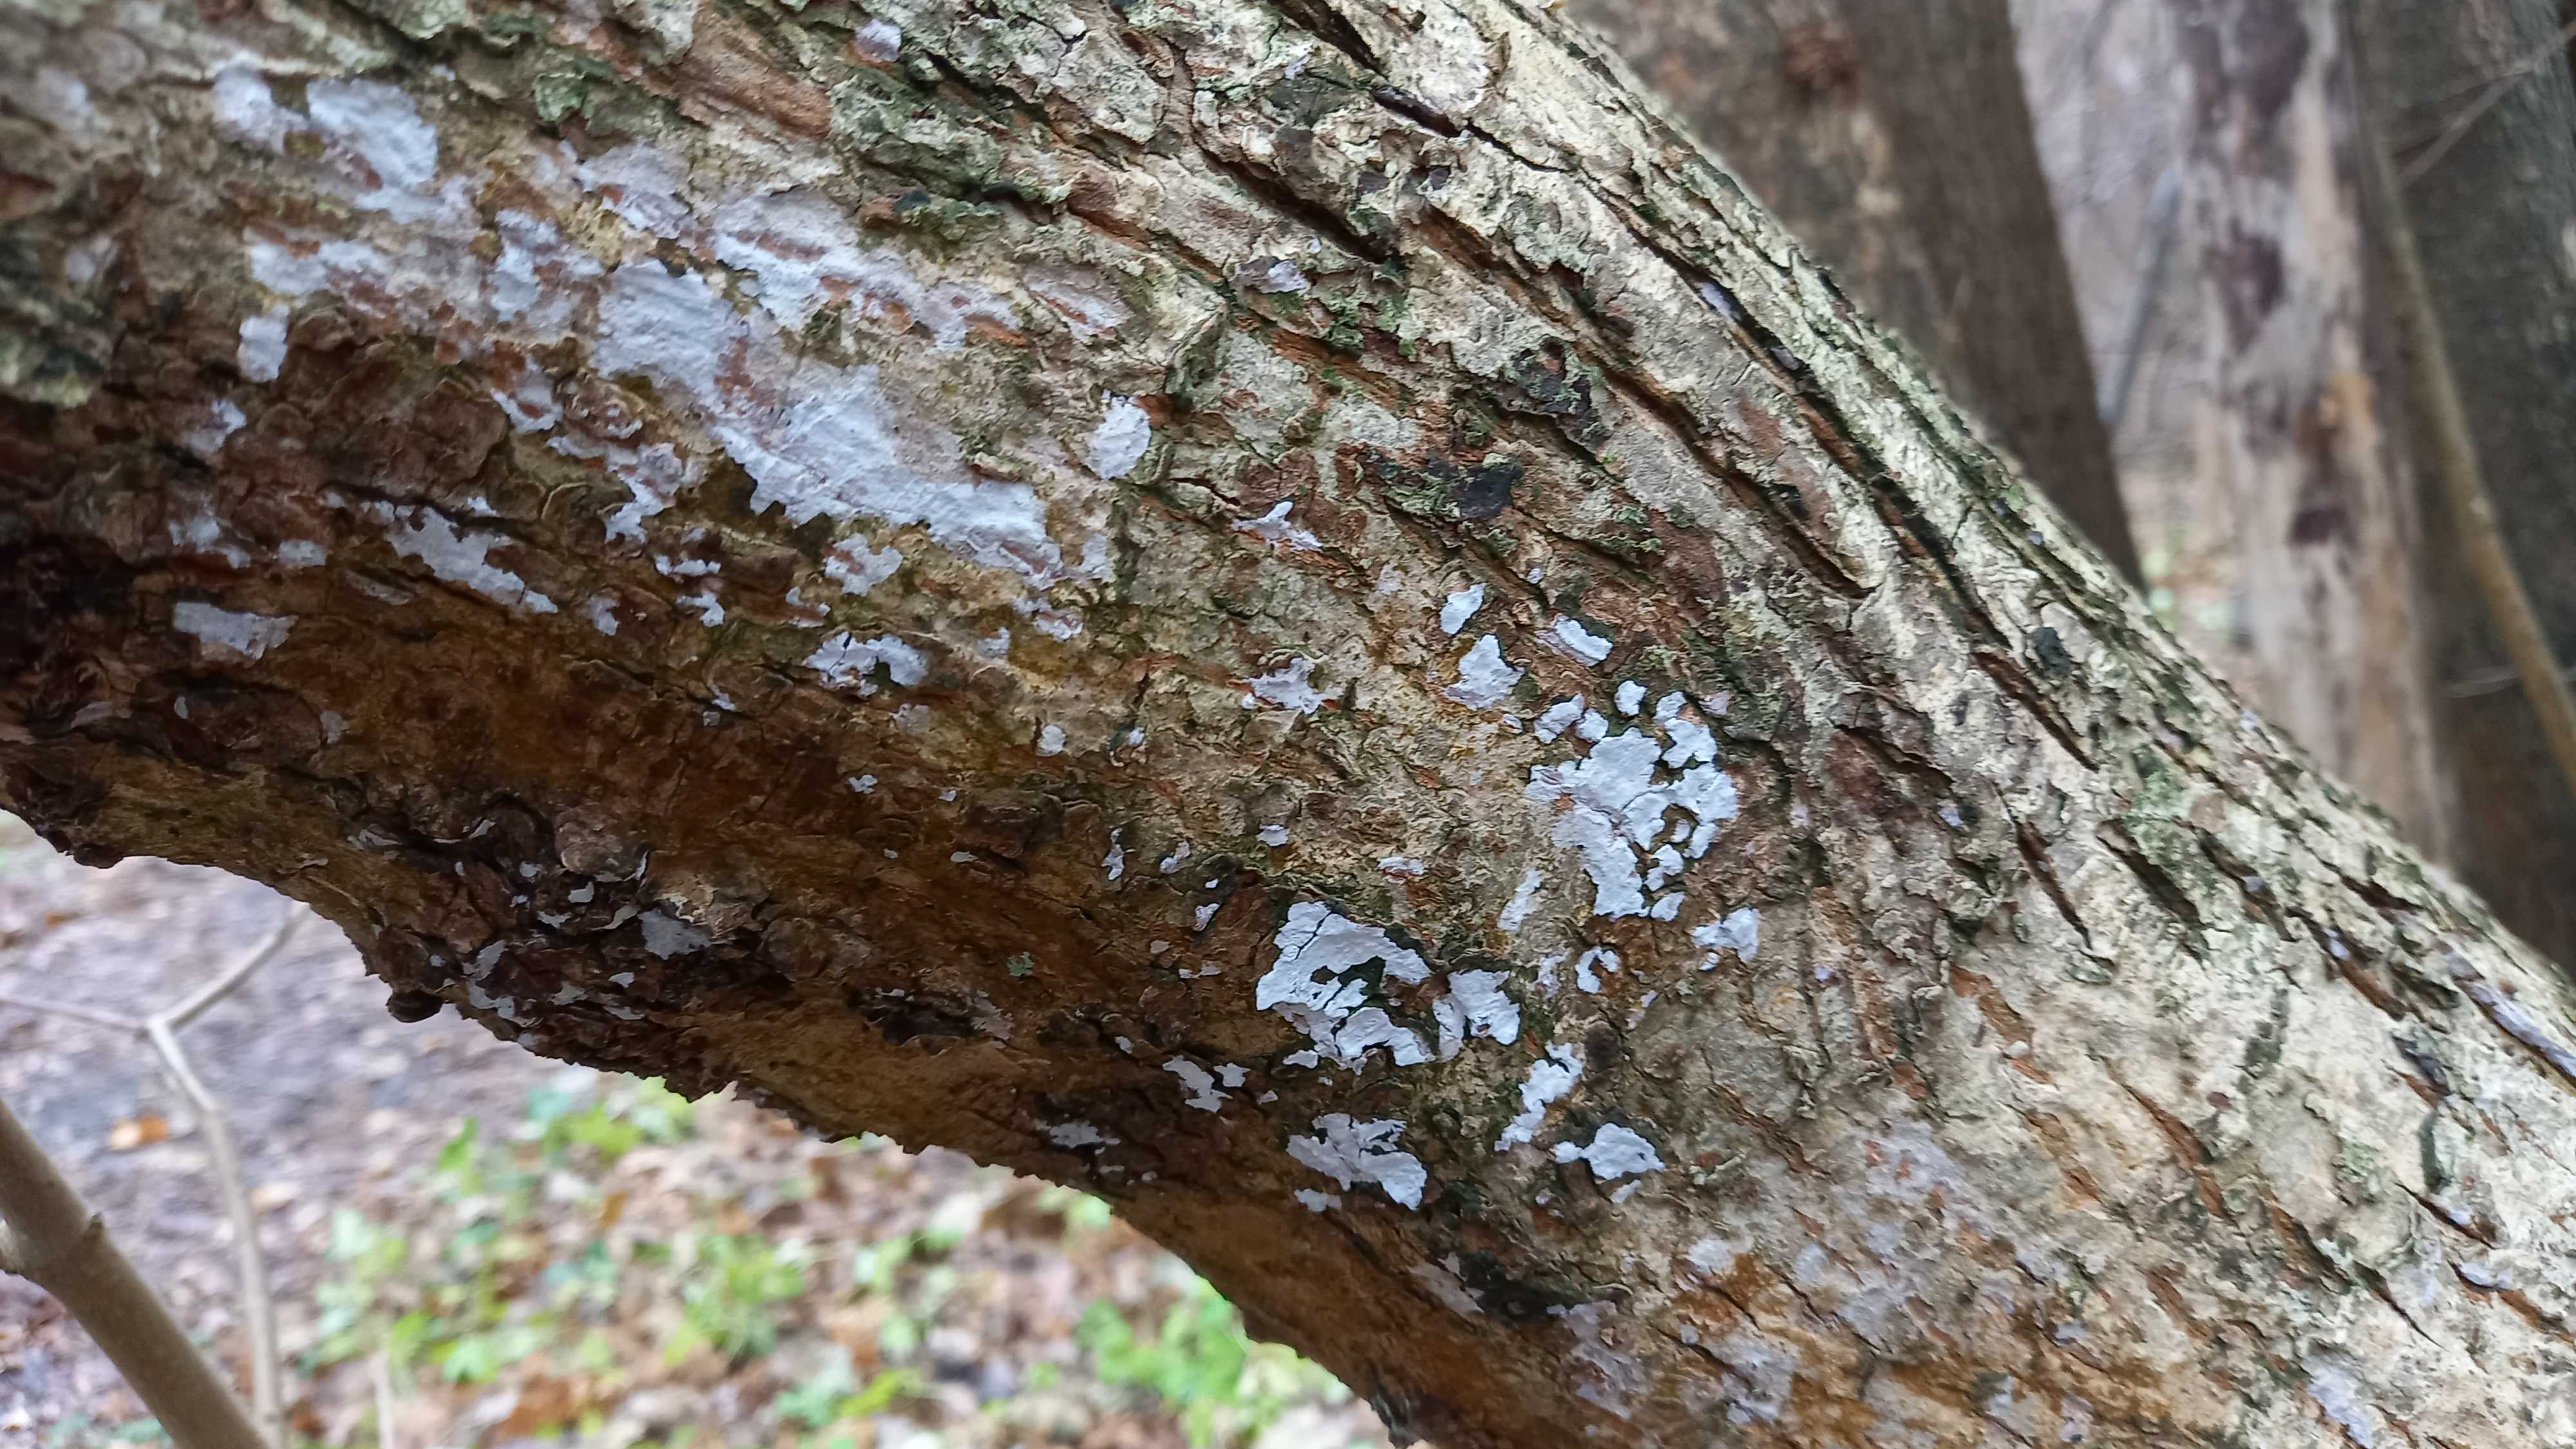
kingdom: Fungi
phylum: Basidiomycota
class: Agaricomycetes
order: Agaricales
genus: Dendrothele
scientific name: Dendrothele acerina
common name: navr-kalkplet
